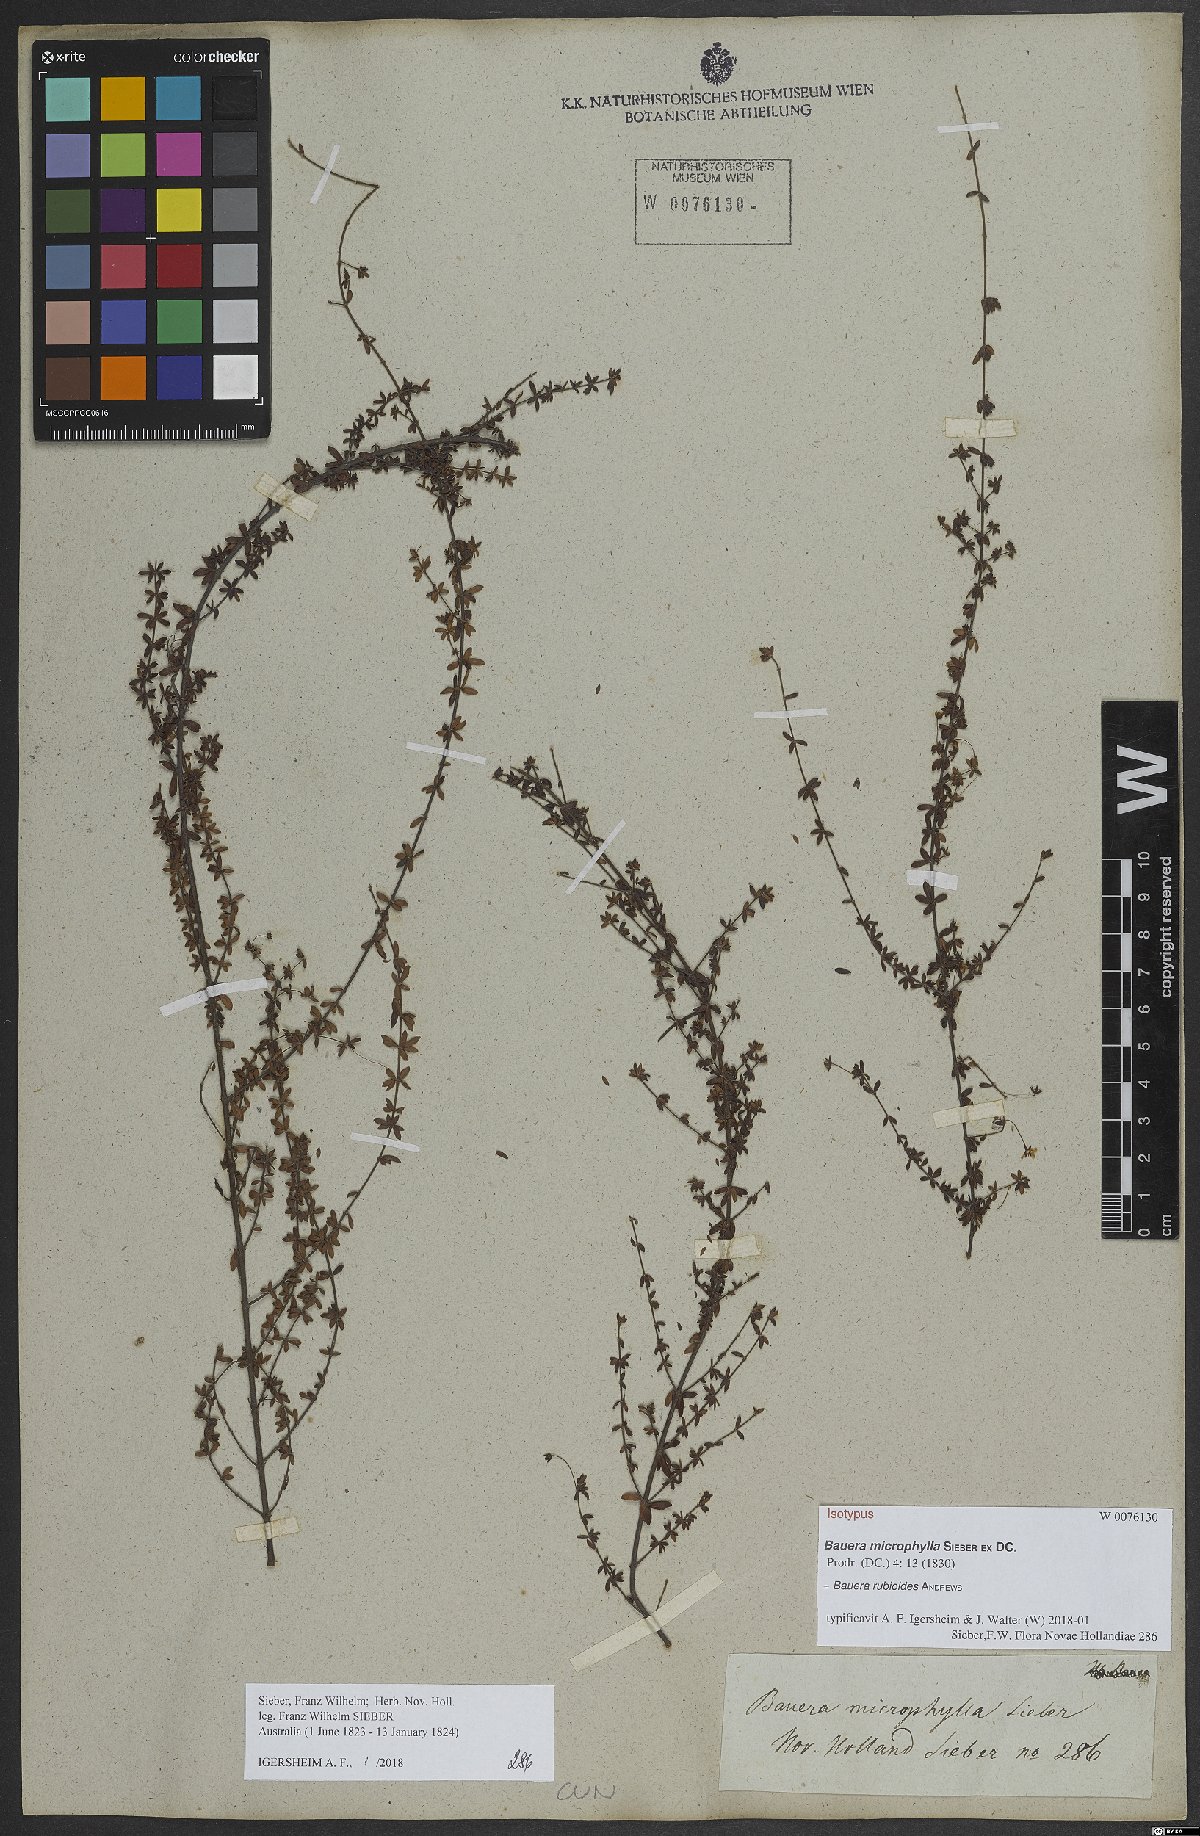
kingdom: Plantae
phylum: Tracheophyta
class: Magnoliopsida
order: Oxalidales
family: Cunoniaceae
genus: Bauera
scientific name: Bauera rubioides
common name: River-rose
